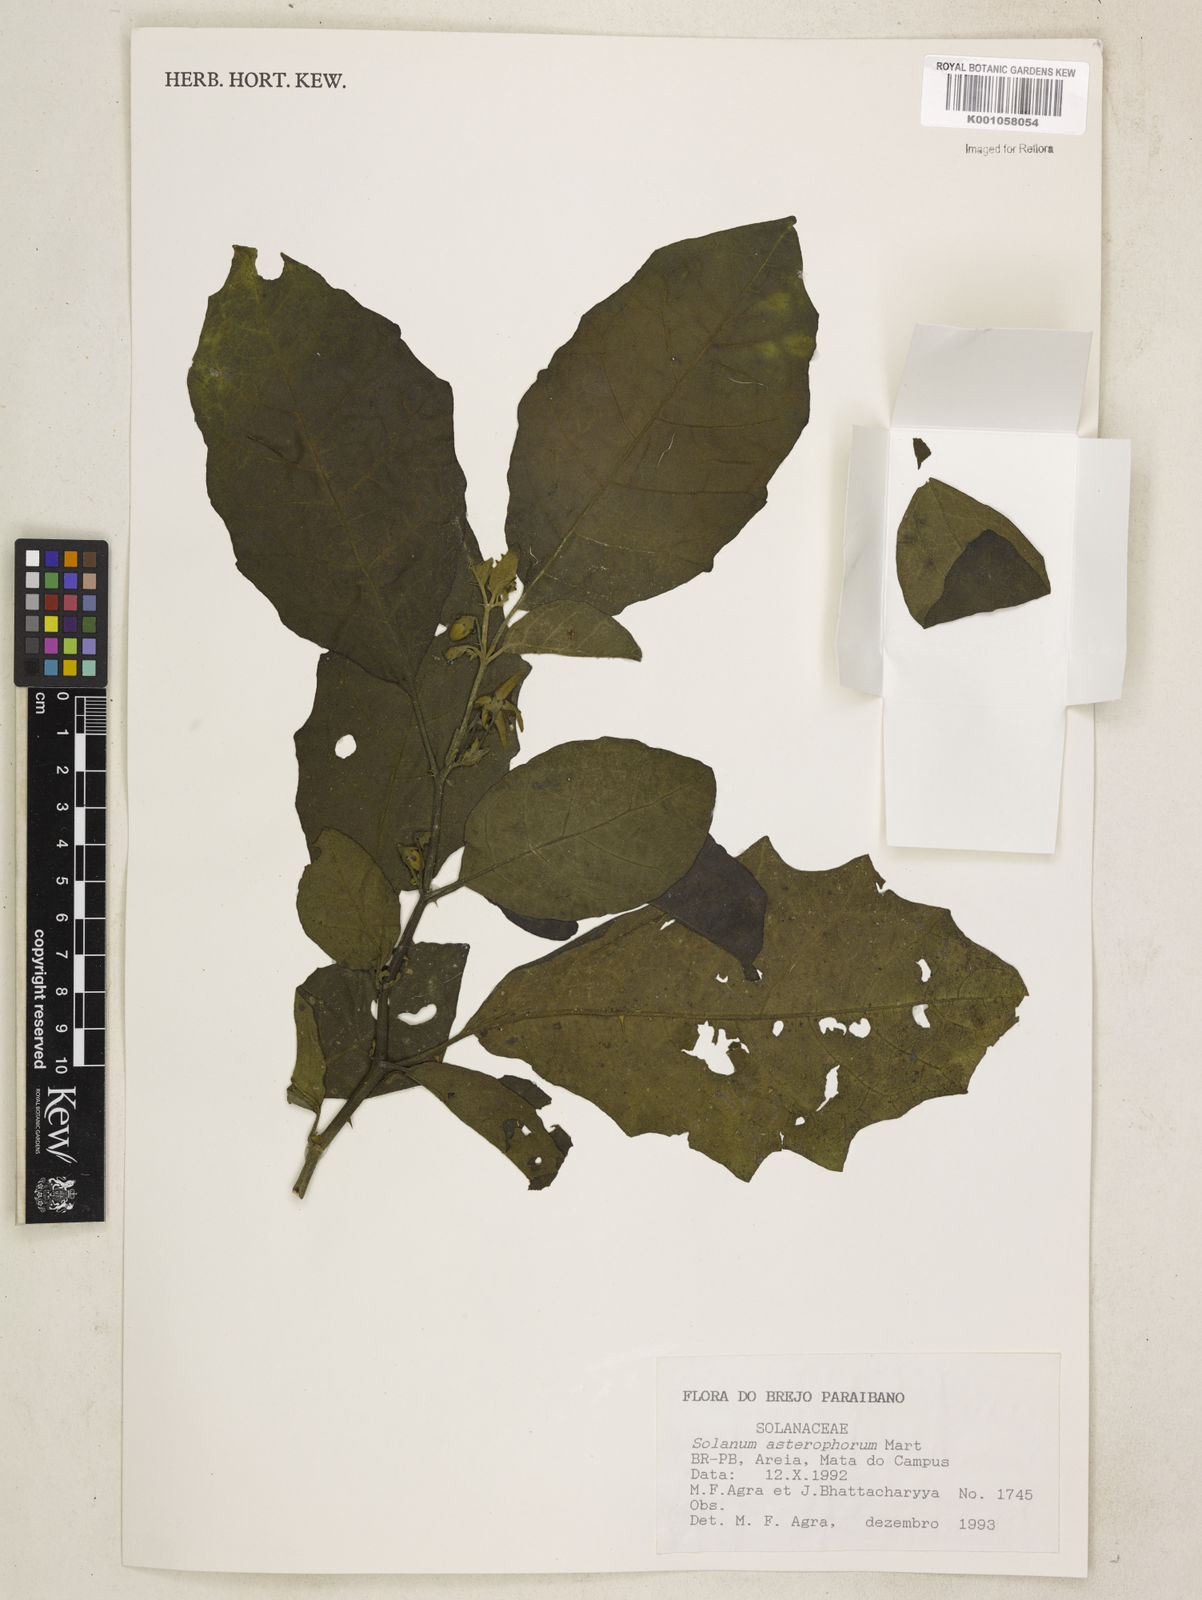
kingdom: Plantae
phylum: Tracheophyta
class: Magnoliopsida
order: Solanales
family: Solanaceae
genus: Solanum
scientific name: Solanum asterophorum
